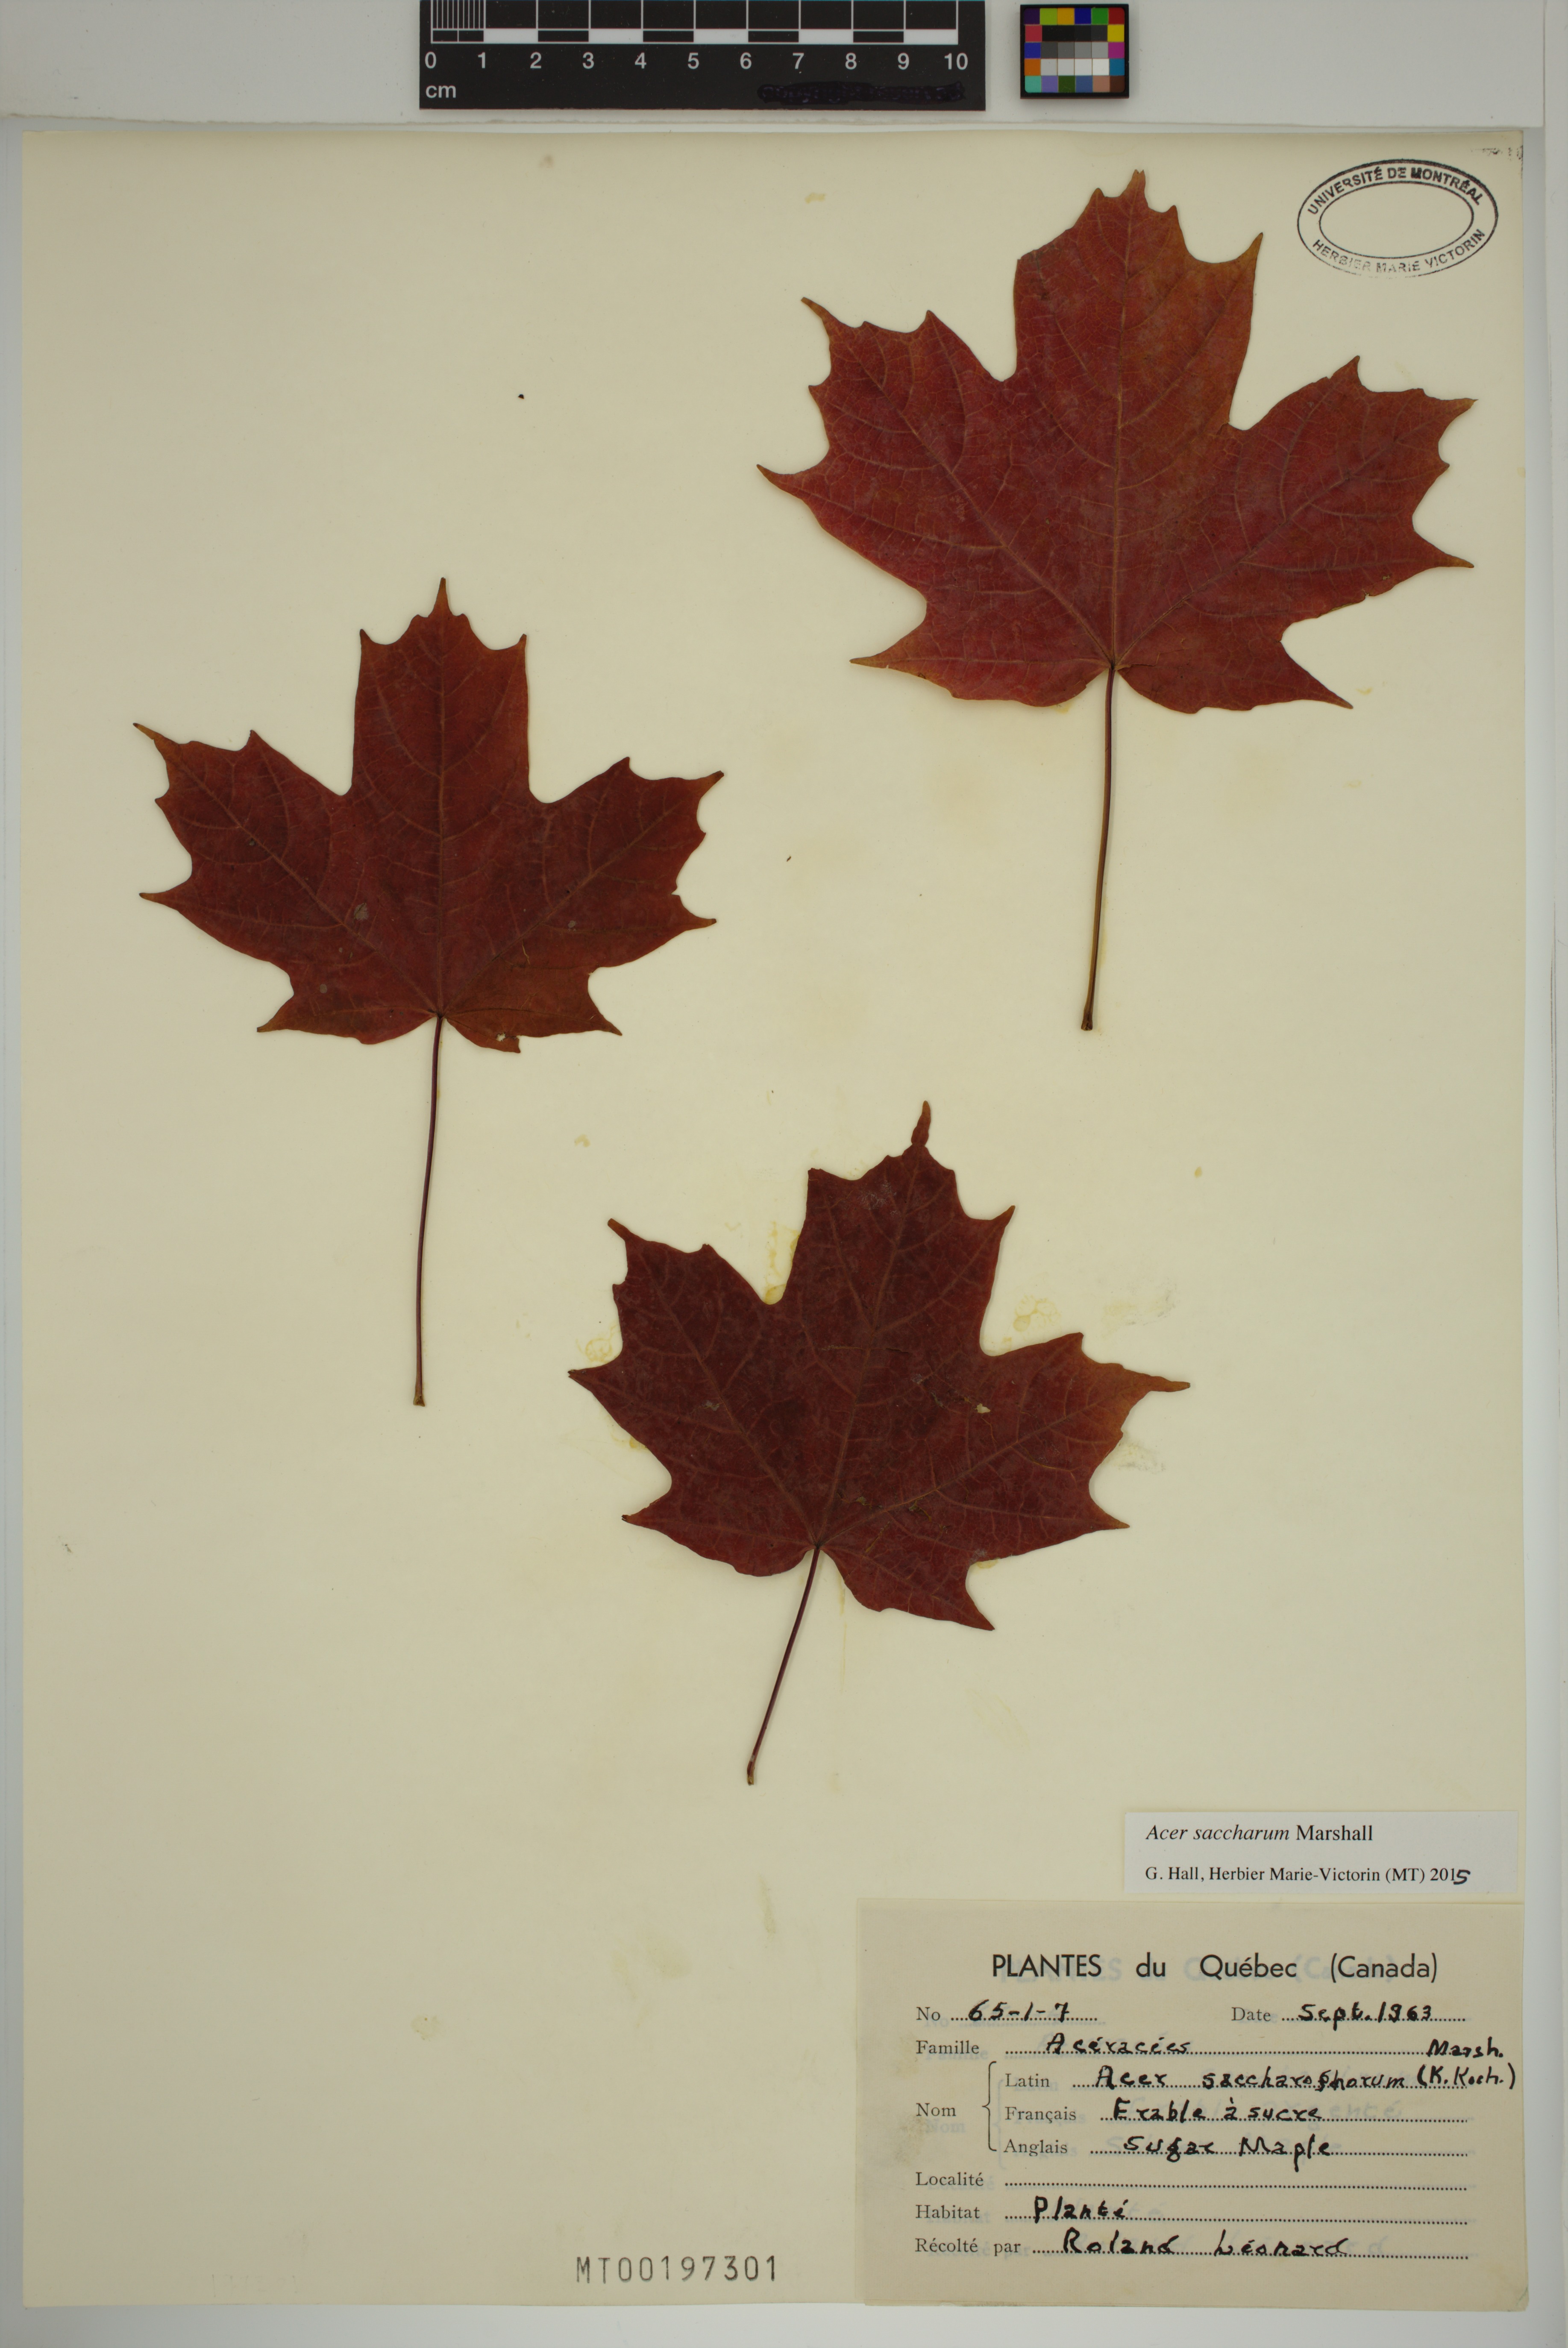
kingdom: Plantae
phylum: Tracheophyta
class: Magnoliopsida
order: Sapindales
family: Sapindaceae
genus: Acer
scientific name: Acer saccharum
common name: Sugar maple
